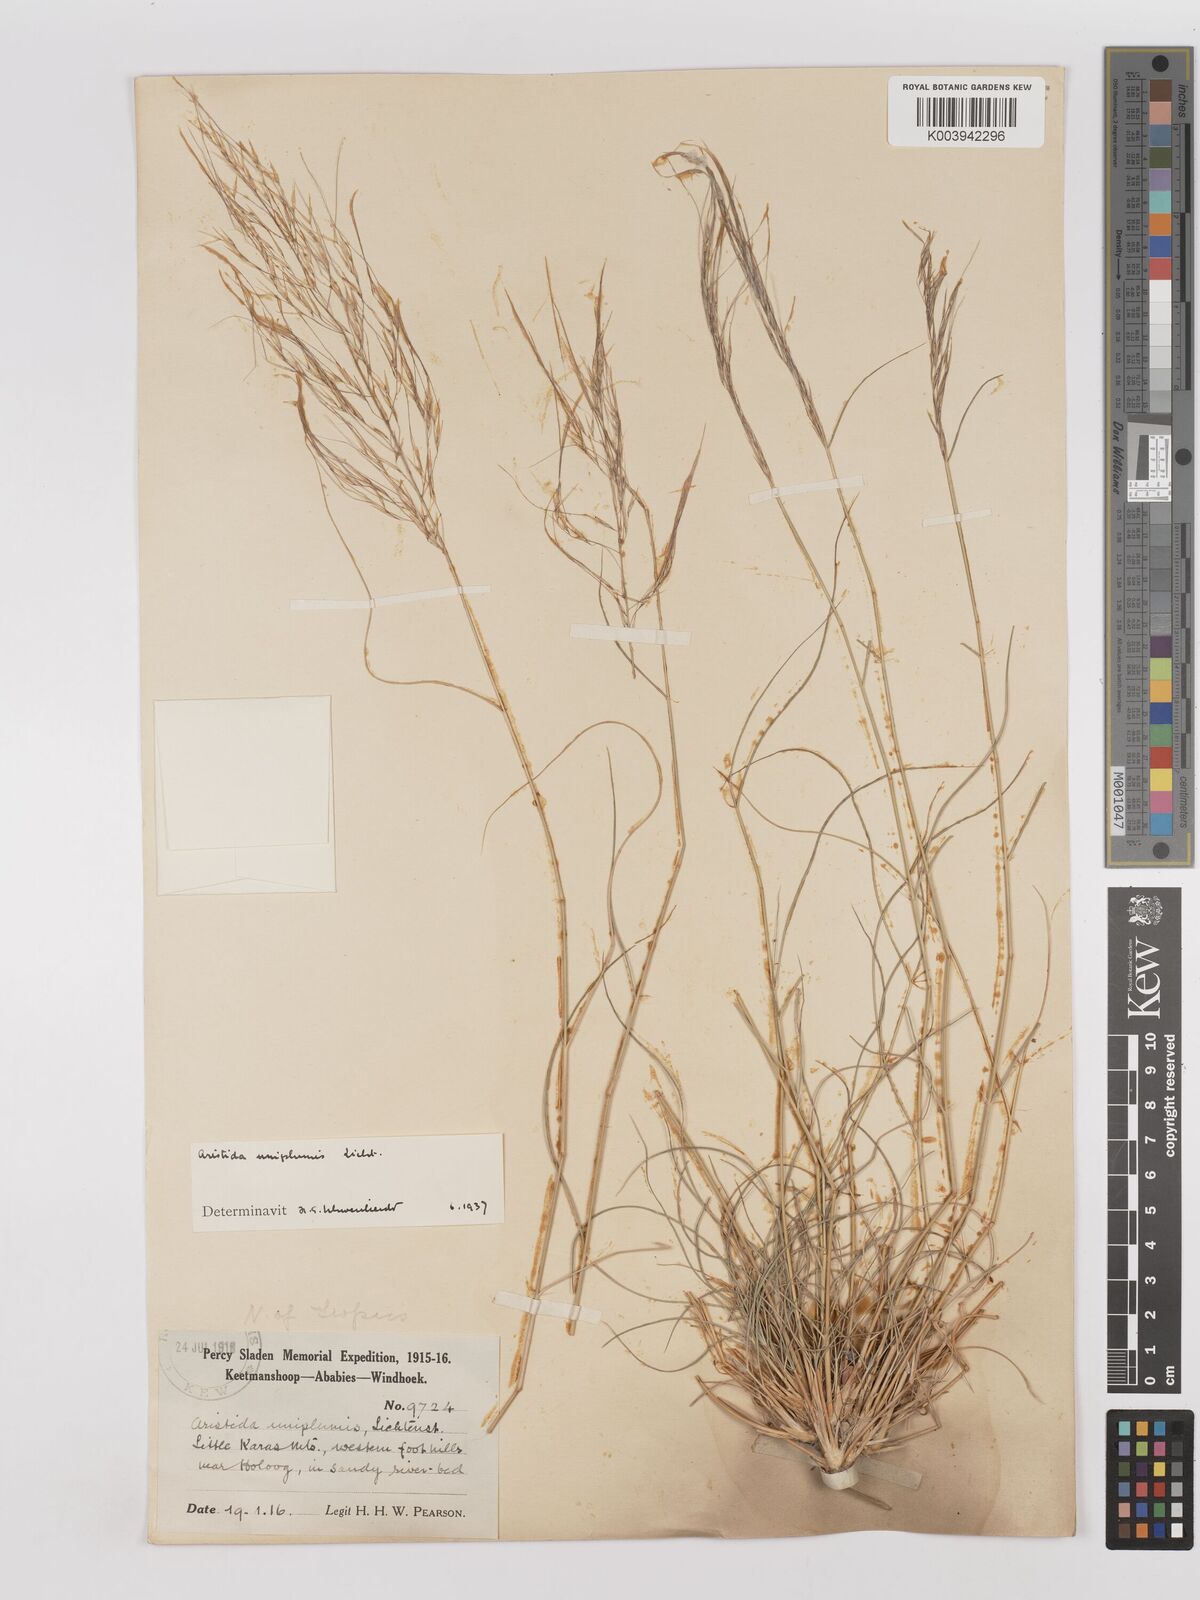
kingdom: Plantae
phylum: Tracheophyta
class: Liliopsida
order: Poales
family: Poaceae
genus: Stipagrostis
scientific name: Stipagrostis uniplumis
